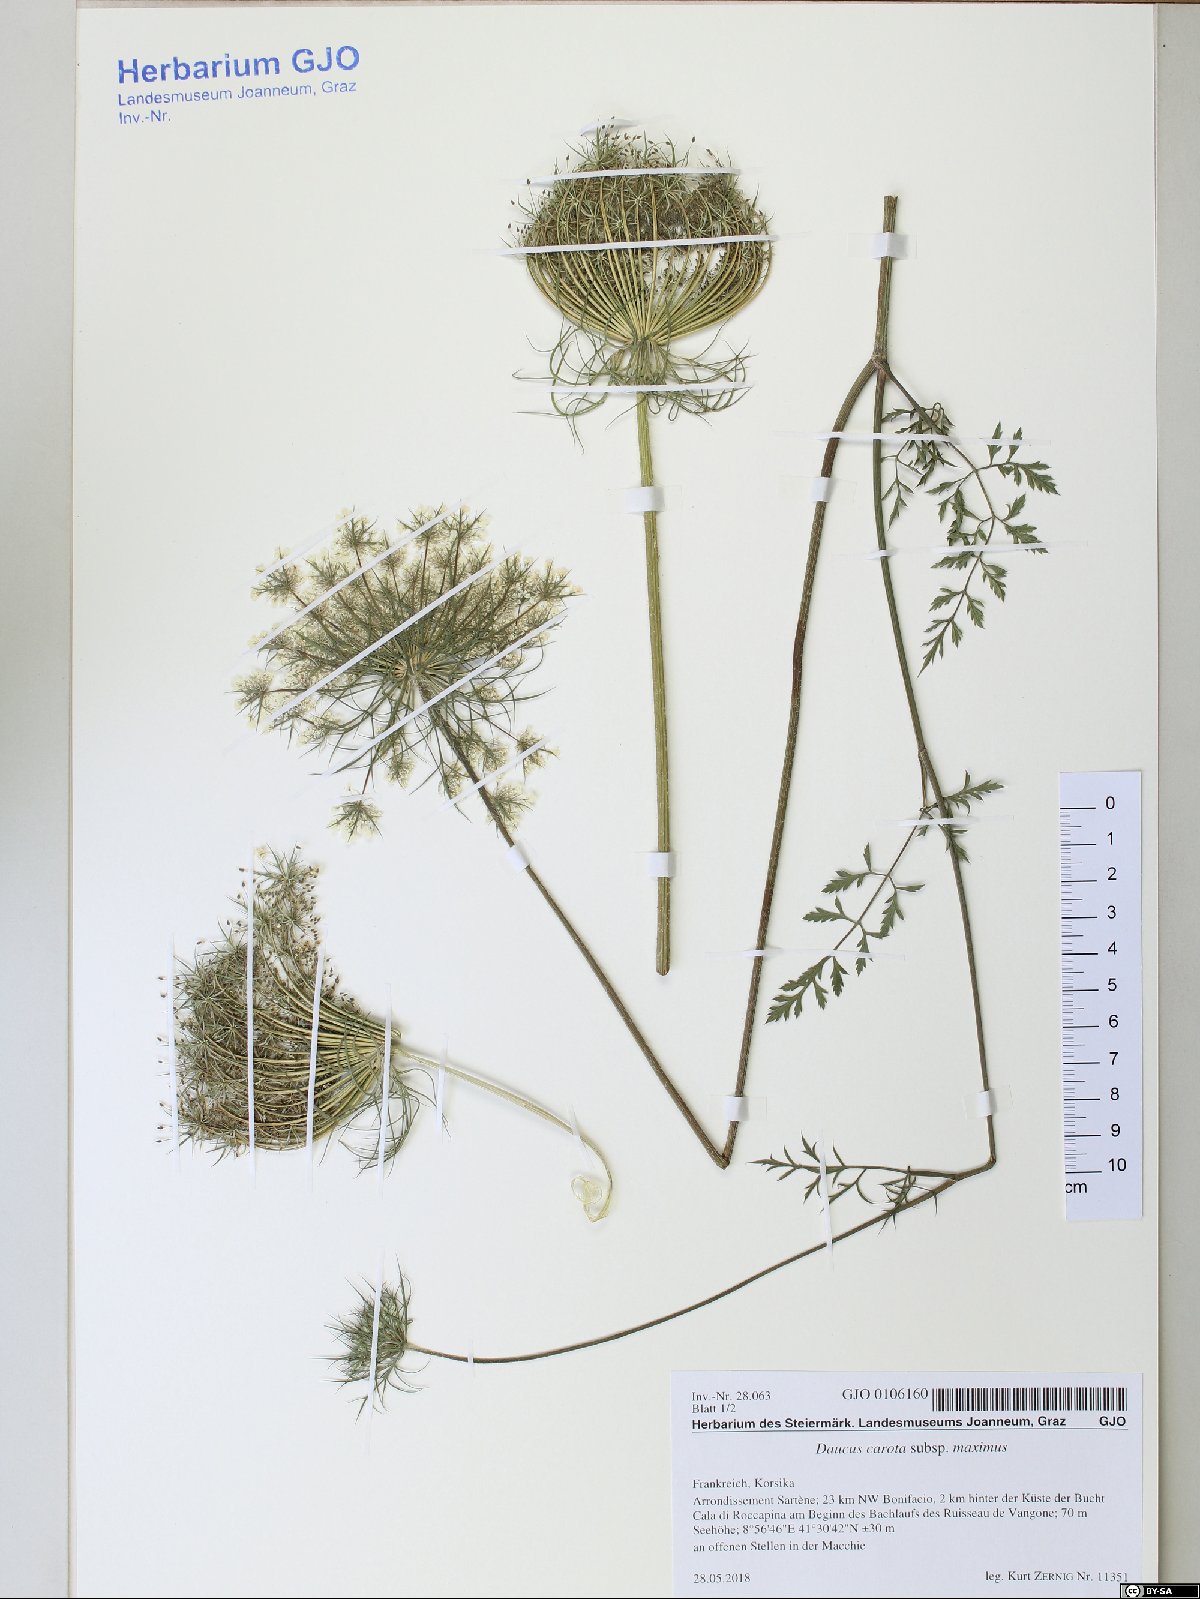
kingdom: Plantae
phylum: Tracheophyta
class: Magnoliopsida
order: Apiales
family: Apiaceae
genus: Daucus
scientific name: Daucus carota
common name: Wild carrot
